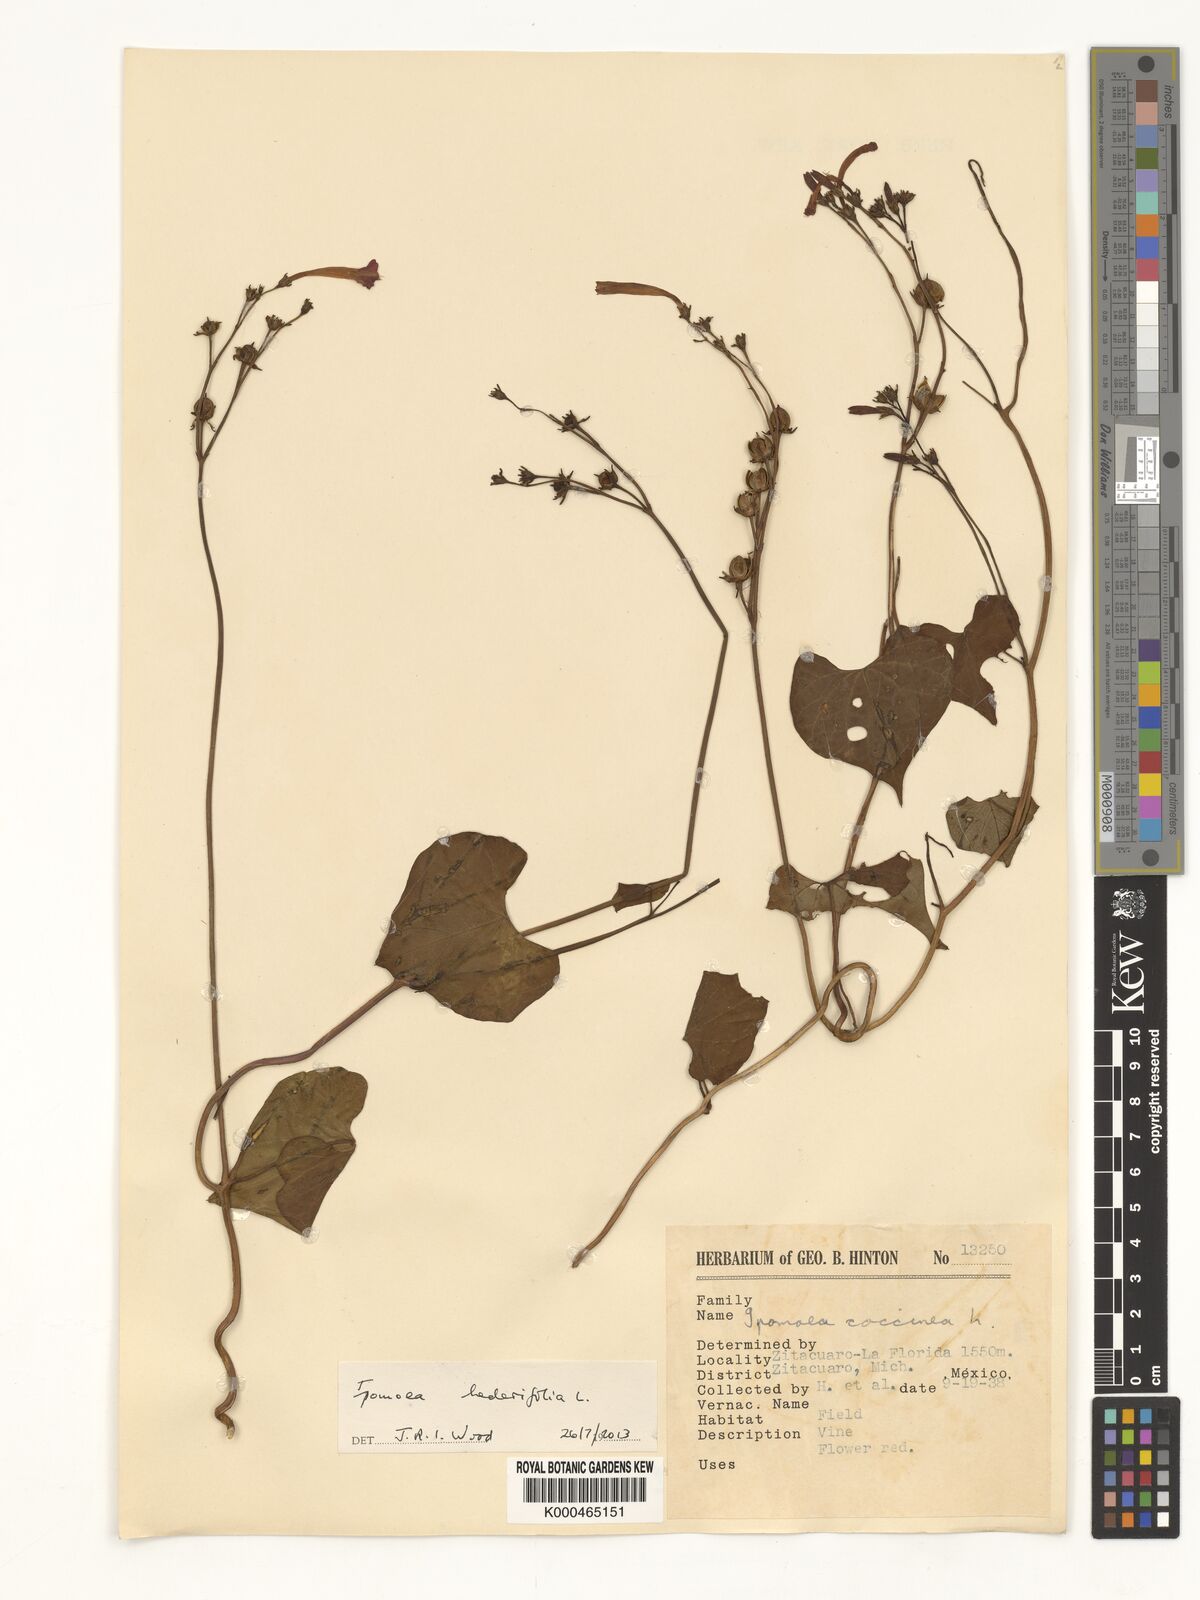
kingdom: Plantae
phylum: Tracheophyta
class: Magnoliopsida
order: Solanales
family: Convolvulaceae
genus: Ipomoea
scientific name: Ipomoea coccinea
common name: Red morning-glory
